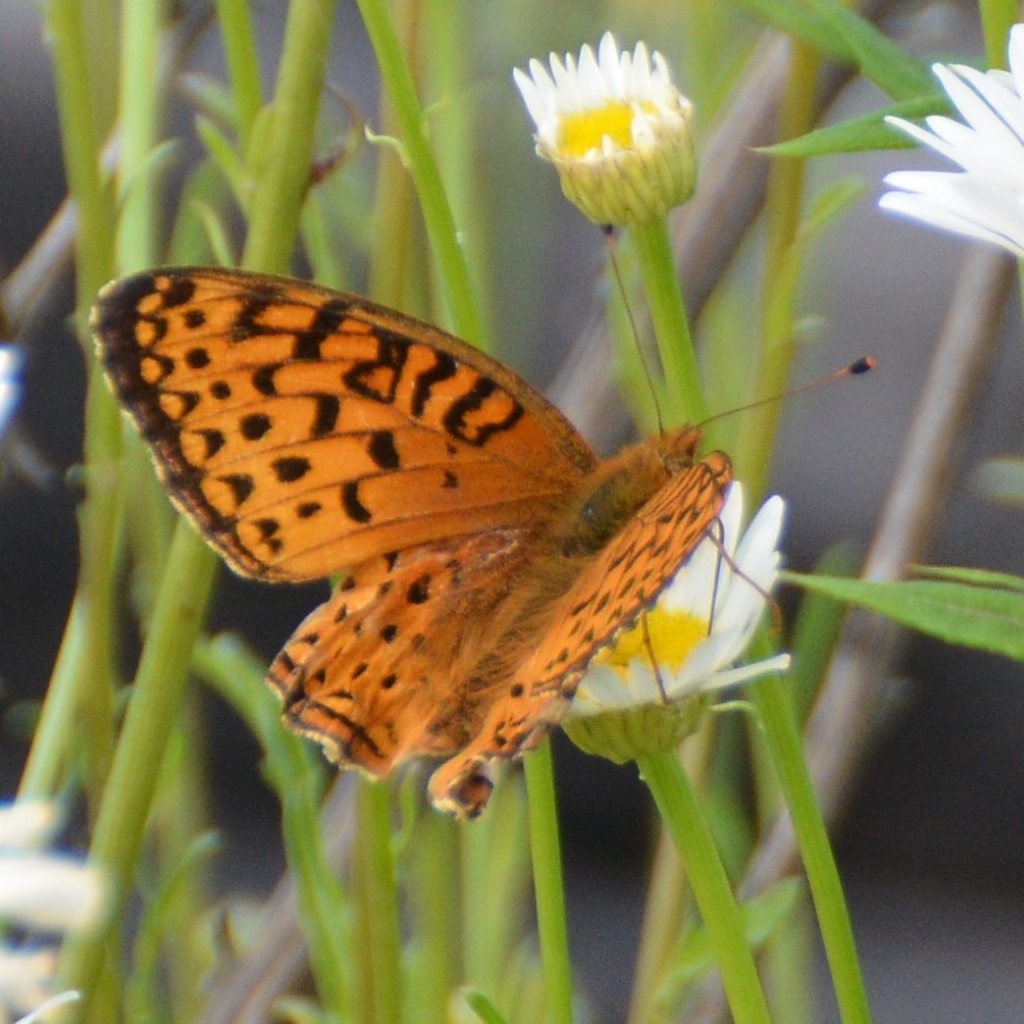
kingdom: Animalia
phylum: Arthropoda
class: Insecta
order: Lepidoptera
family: Nymphalidae
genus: Speyeria
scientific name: Speyeria aphrodite
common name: Aphrodite Fritillary
